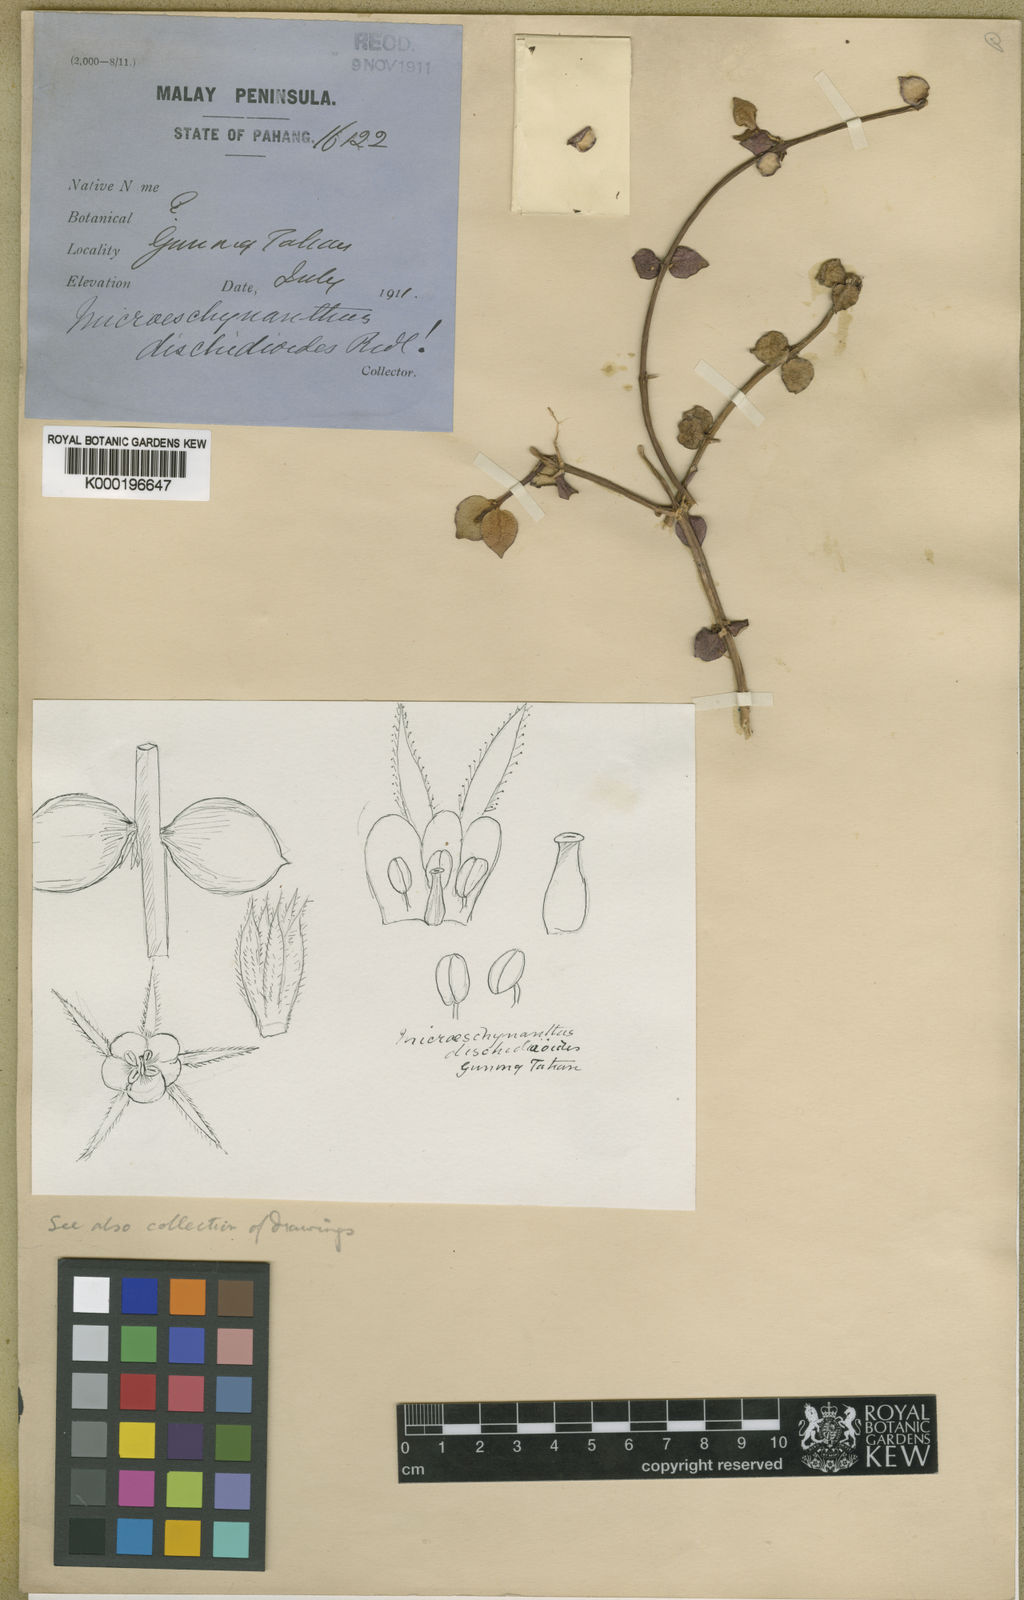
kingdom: Plantae
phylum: Tracheophyta
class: Magnoliopsida
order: Lamiales
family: Gesneriaceae
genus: Aeschynanthus
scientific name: Aeschynanthus dischidioides
